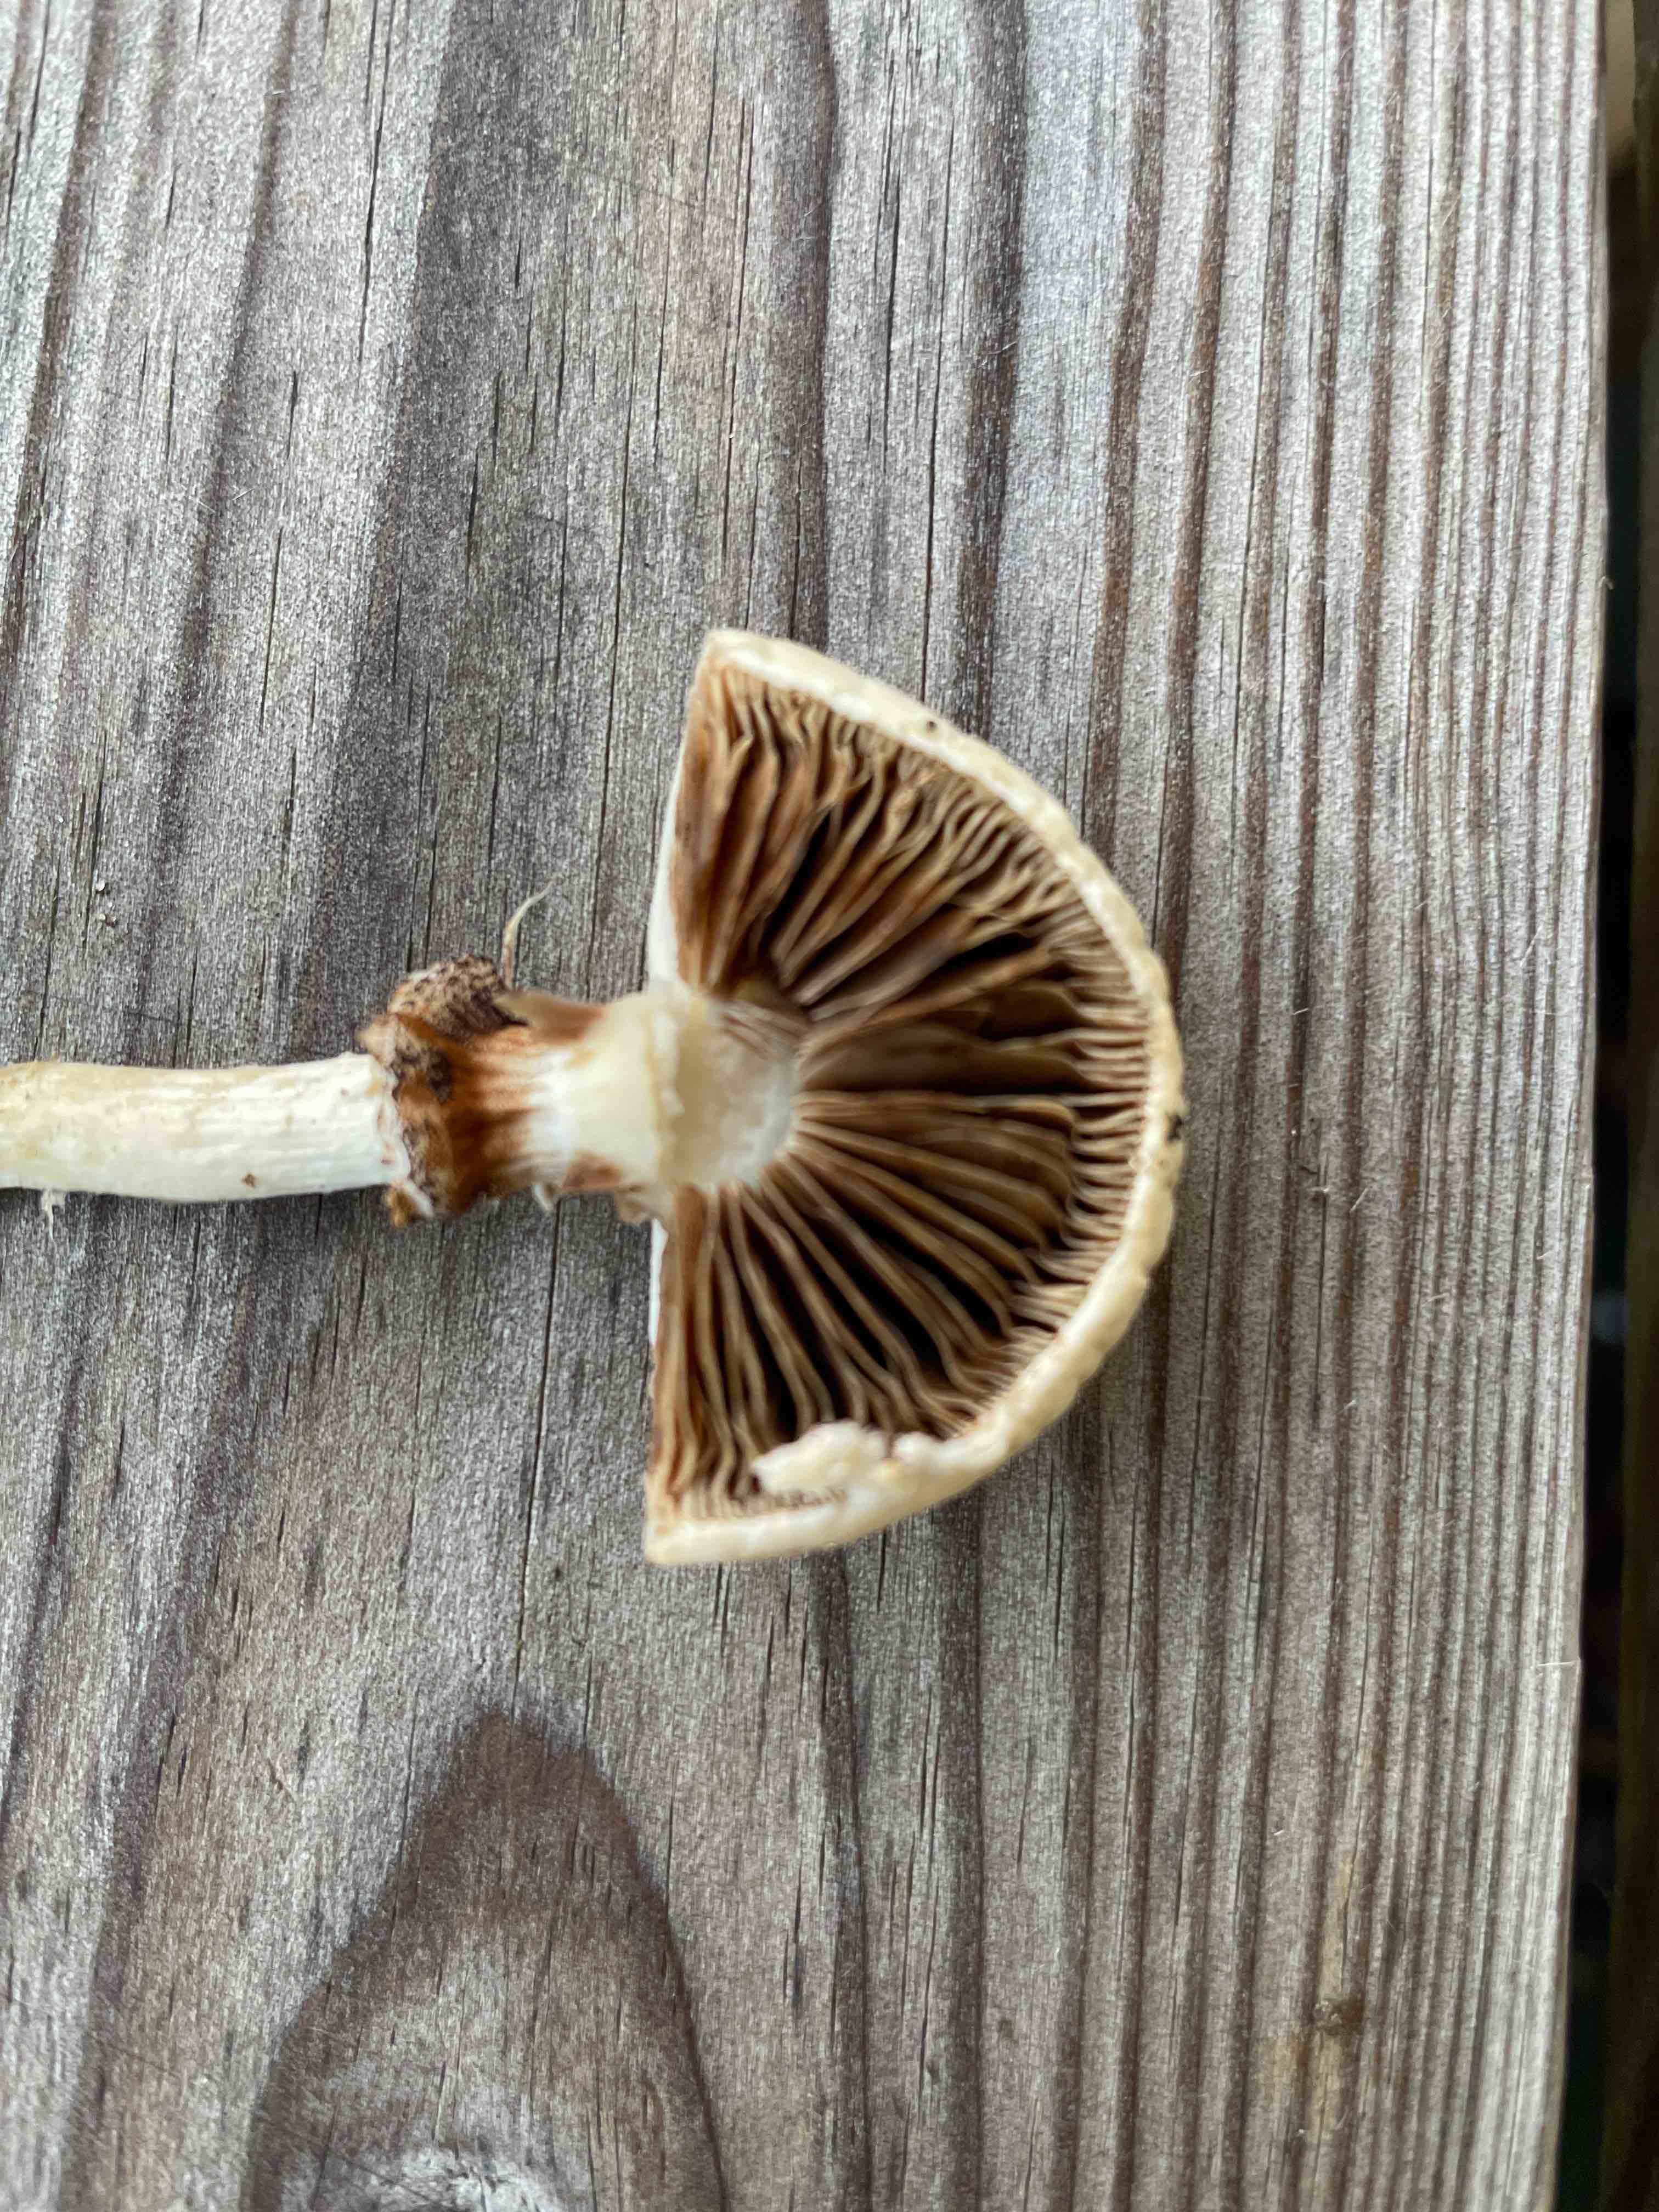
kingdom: Fungi
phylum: Basidiomycota
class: Agaricomycetes
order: Agaricales
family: Strophariaceae
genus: Agrocybe
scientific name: Agrocybe dura
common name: fastkødet agerhat
